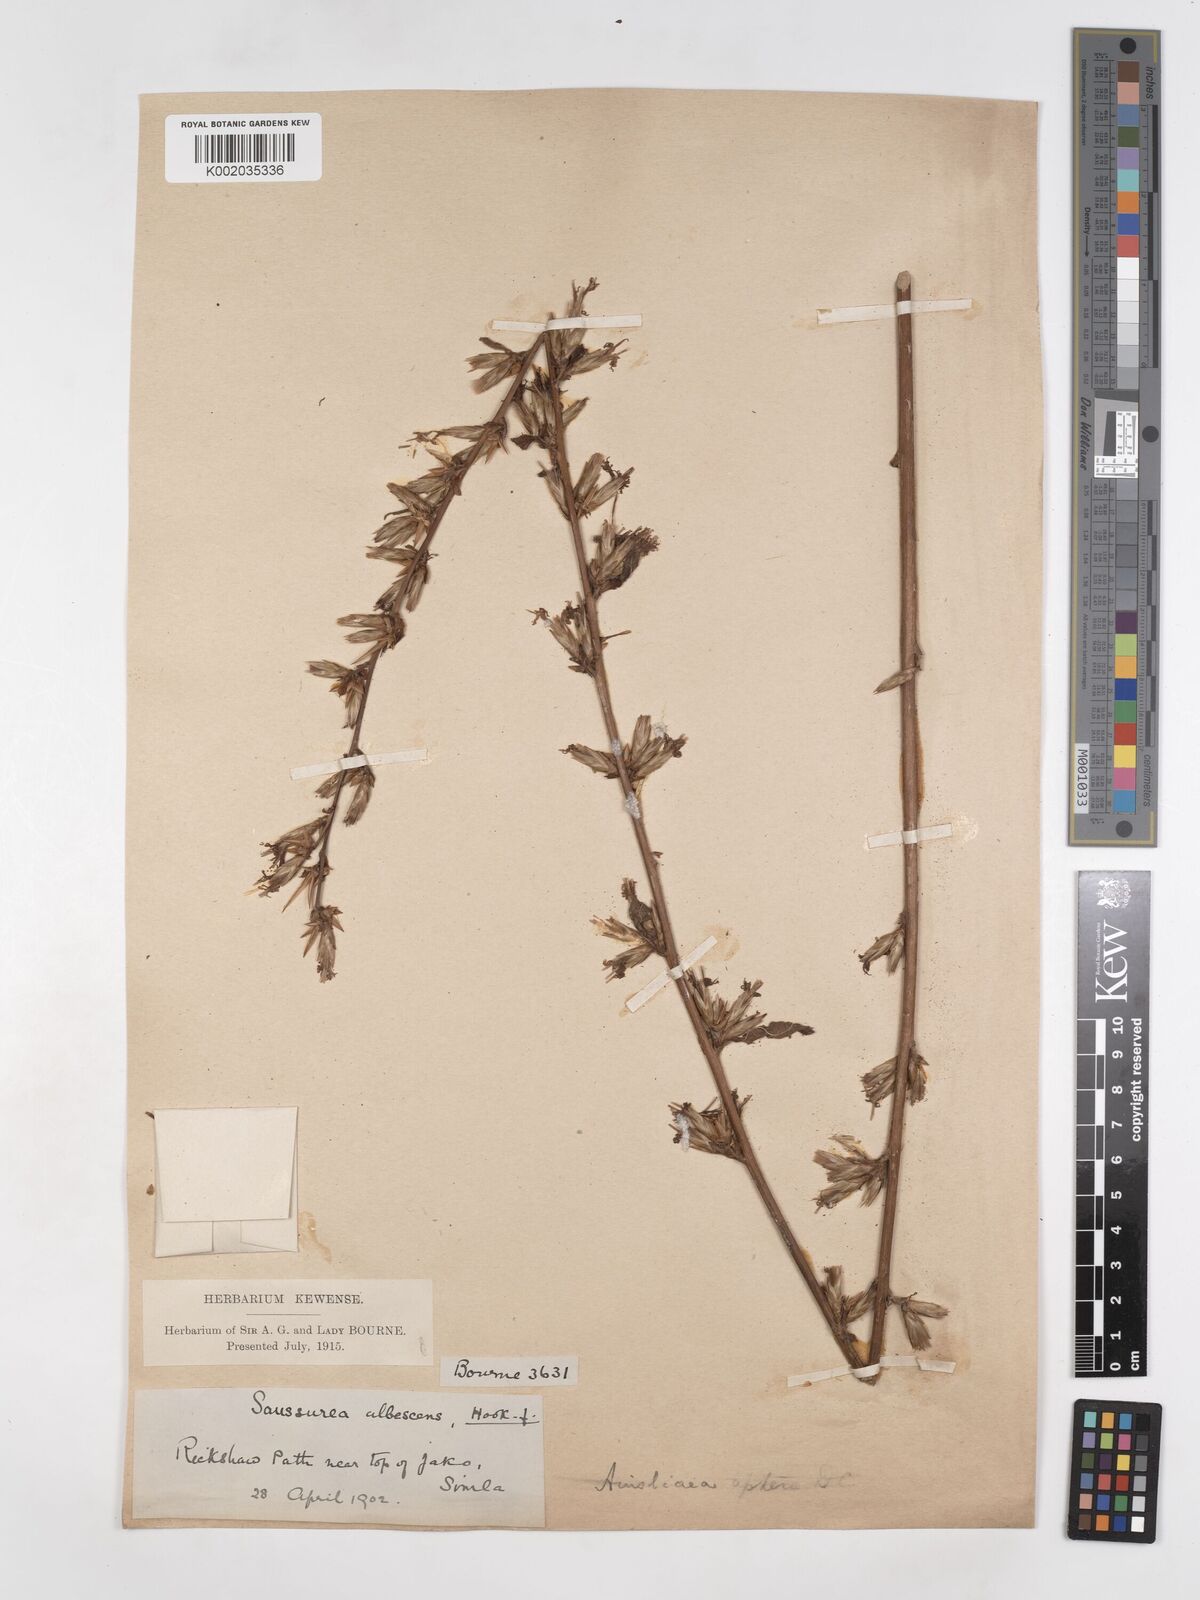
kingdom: Plantae
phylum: Tracheophyta
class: Magnoliopsida
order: Asterales
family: Asteraceae
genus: Ainsliaea
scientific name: Ainsliaea aptera
